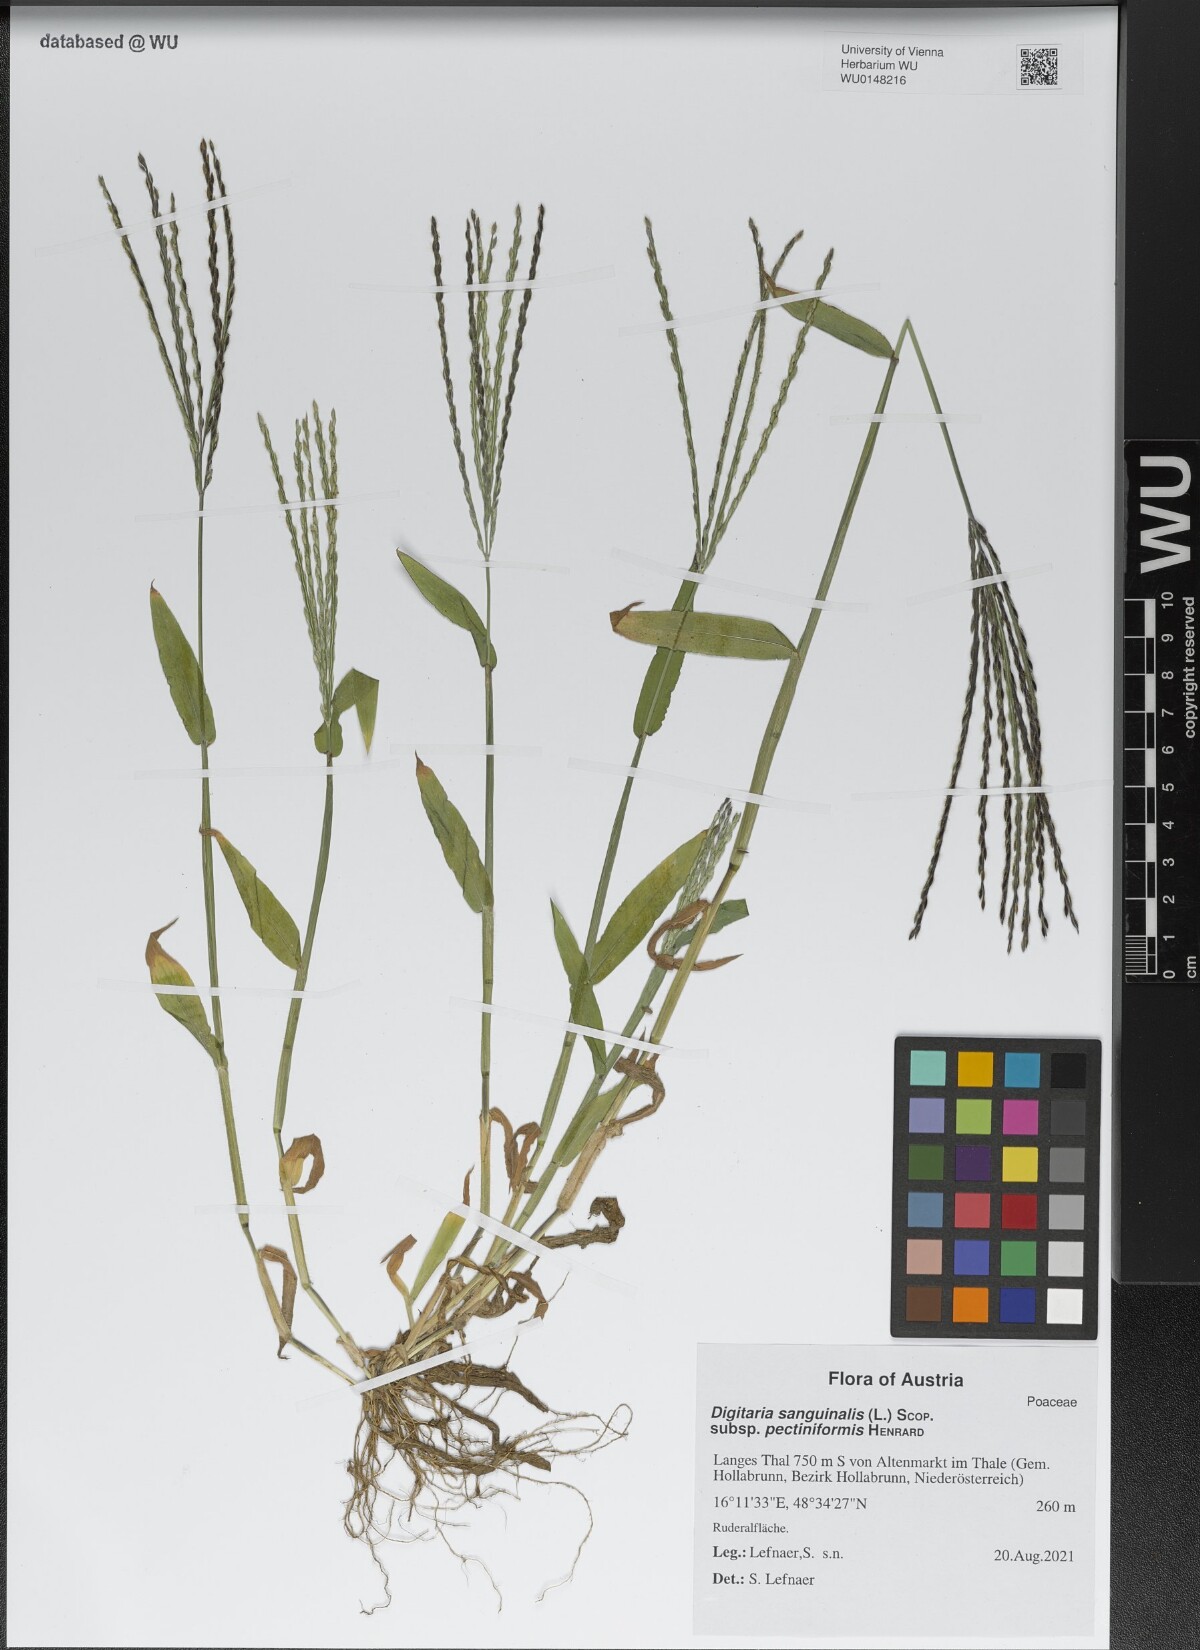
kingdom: Plantae
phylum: Tracheophyta
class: Liliopsida
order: Poales
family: Poaceae
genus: Digitaria
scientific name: Digitaria sanguinalis
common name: Hairy crabgrass
